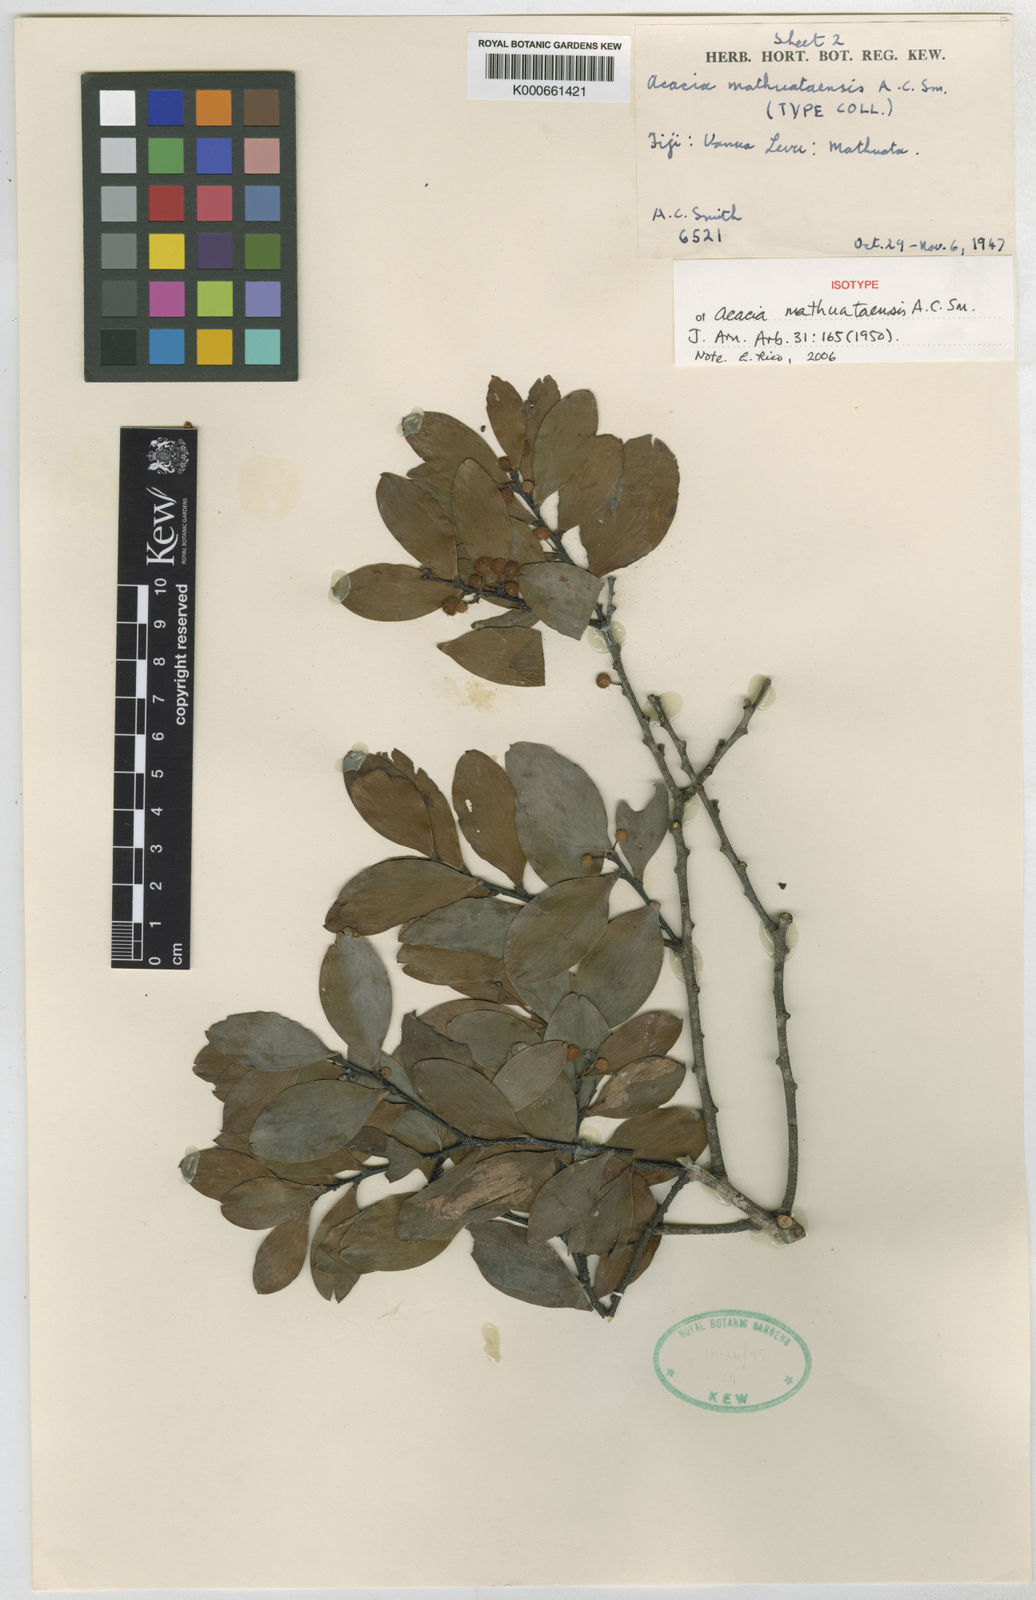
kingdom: Plantae
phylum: Tracheophyta
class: Magnoliopsida
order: Fabales
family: Fabaceae
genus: Acacia
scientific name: Acacia mathuataensis
